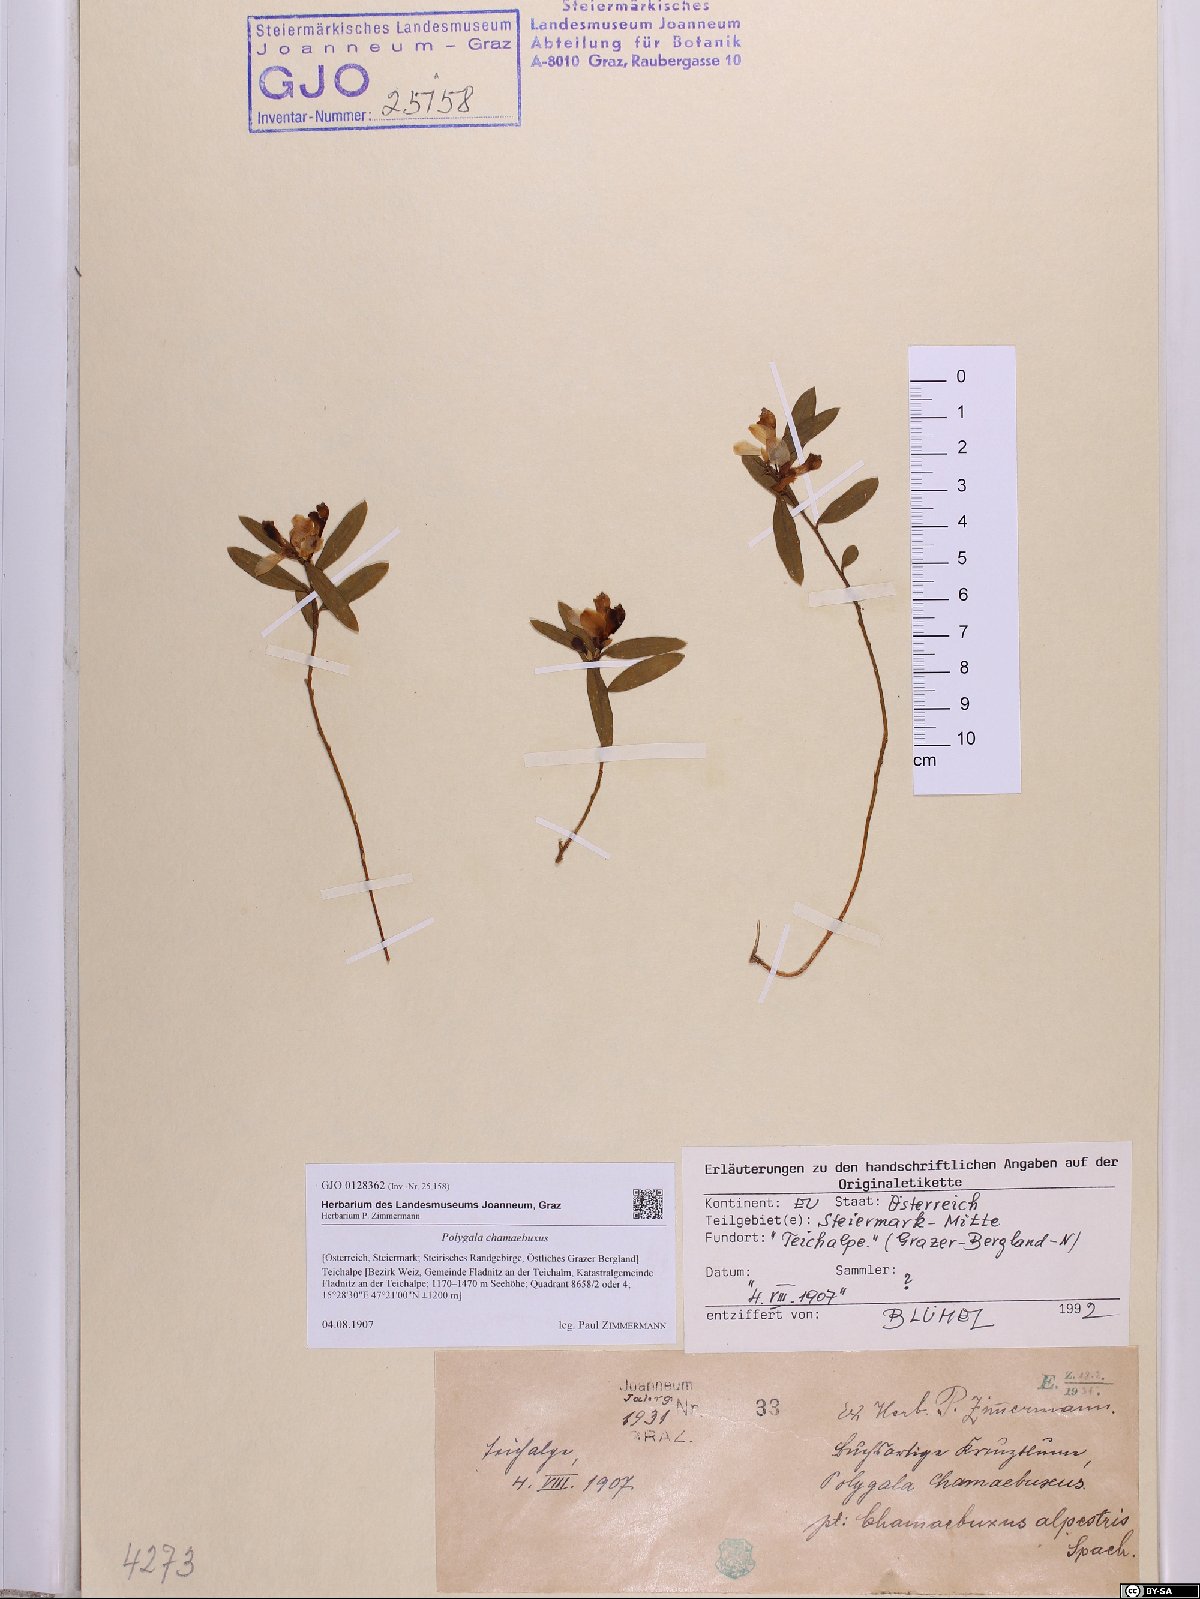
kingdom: Plantae
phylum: Tracheophyta
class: Magnoliopsida
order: Fabales
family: Polygalaceae
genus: Polygaloides
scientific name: Polygaloides chamaebuxus
